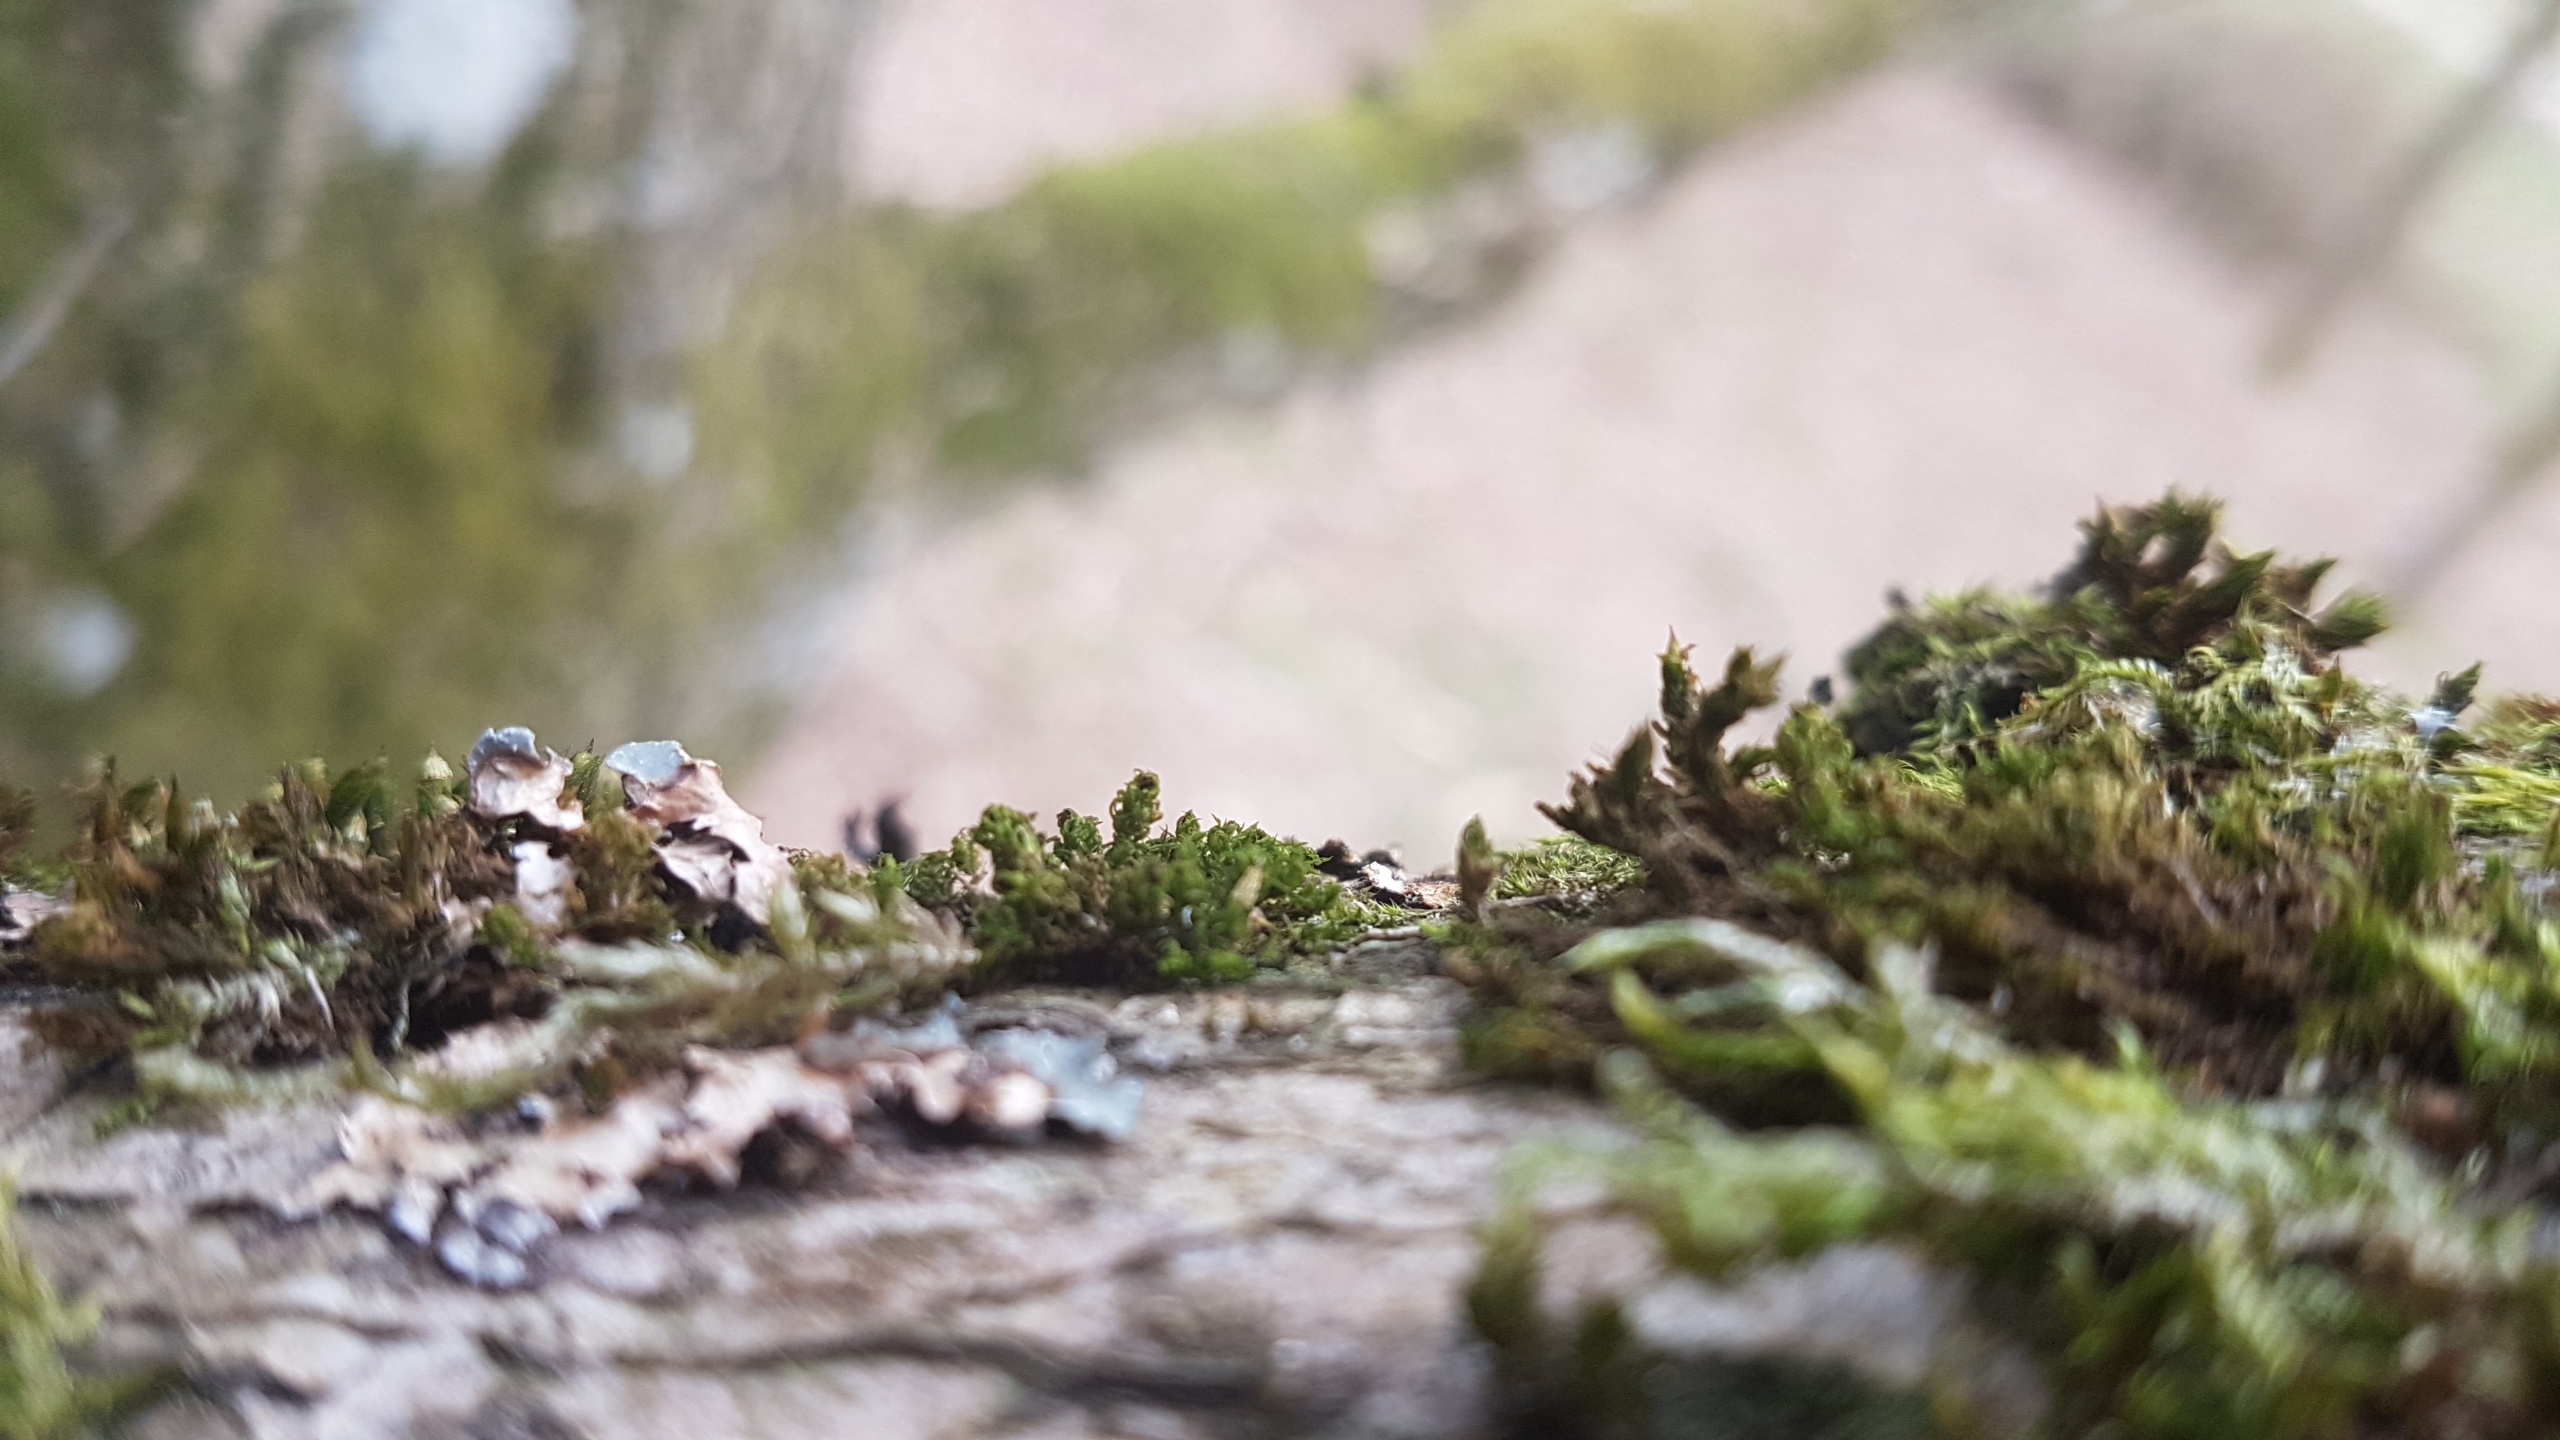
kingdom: Plantae
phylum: Bryophyta
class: Bryopsida
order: Orthotrichales
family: Orthotrichaceae
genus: Plenogemma
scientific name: Plenogemma phyllantha
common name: Stor låddenhætte
